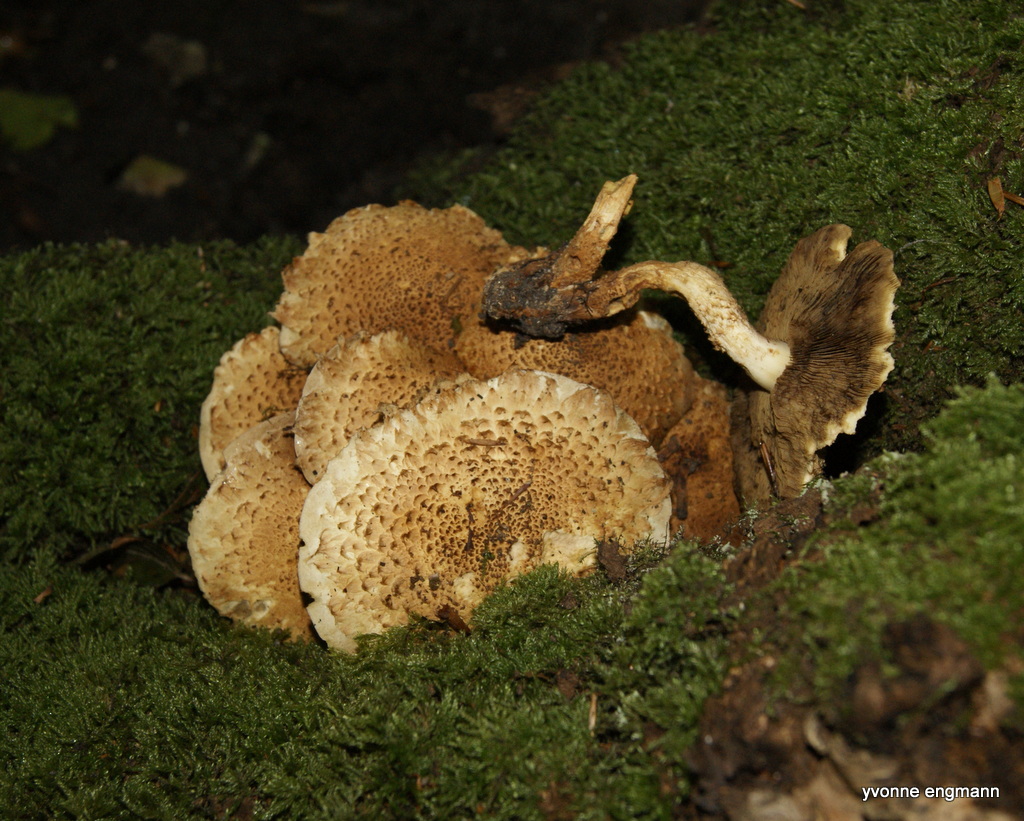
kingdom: Fungi
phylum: Basidiomycota
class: Agaricomycetes
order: Agaricales
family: Strophariaceae
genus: Pholiota
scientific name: Pholiota squarrosa
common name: krumskællet skælhat
